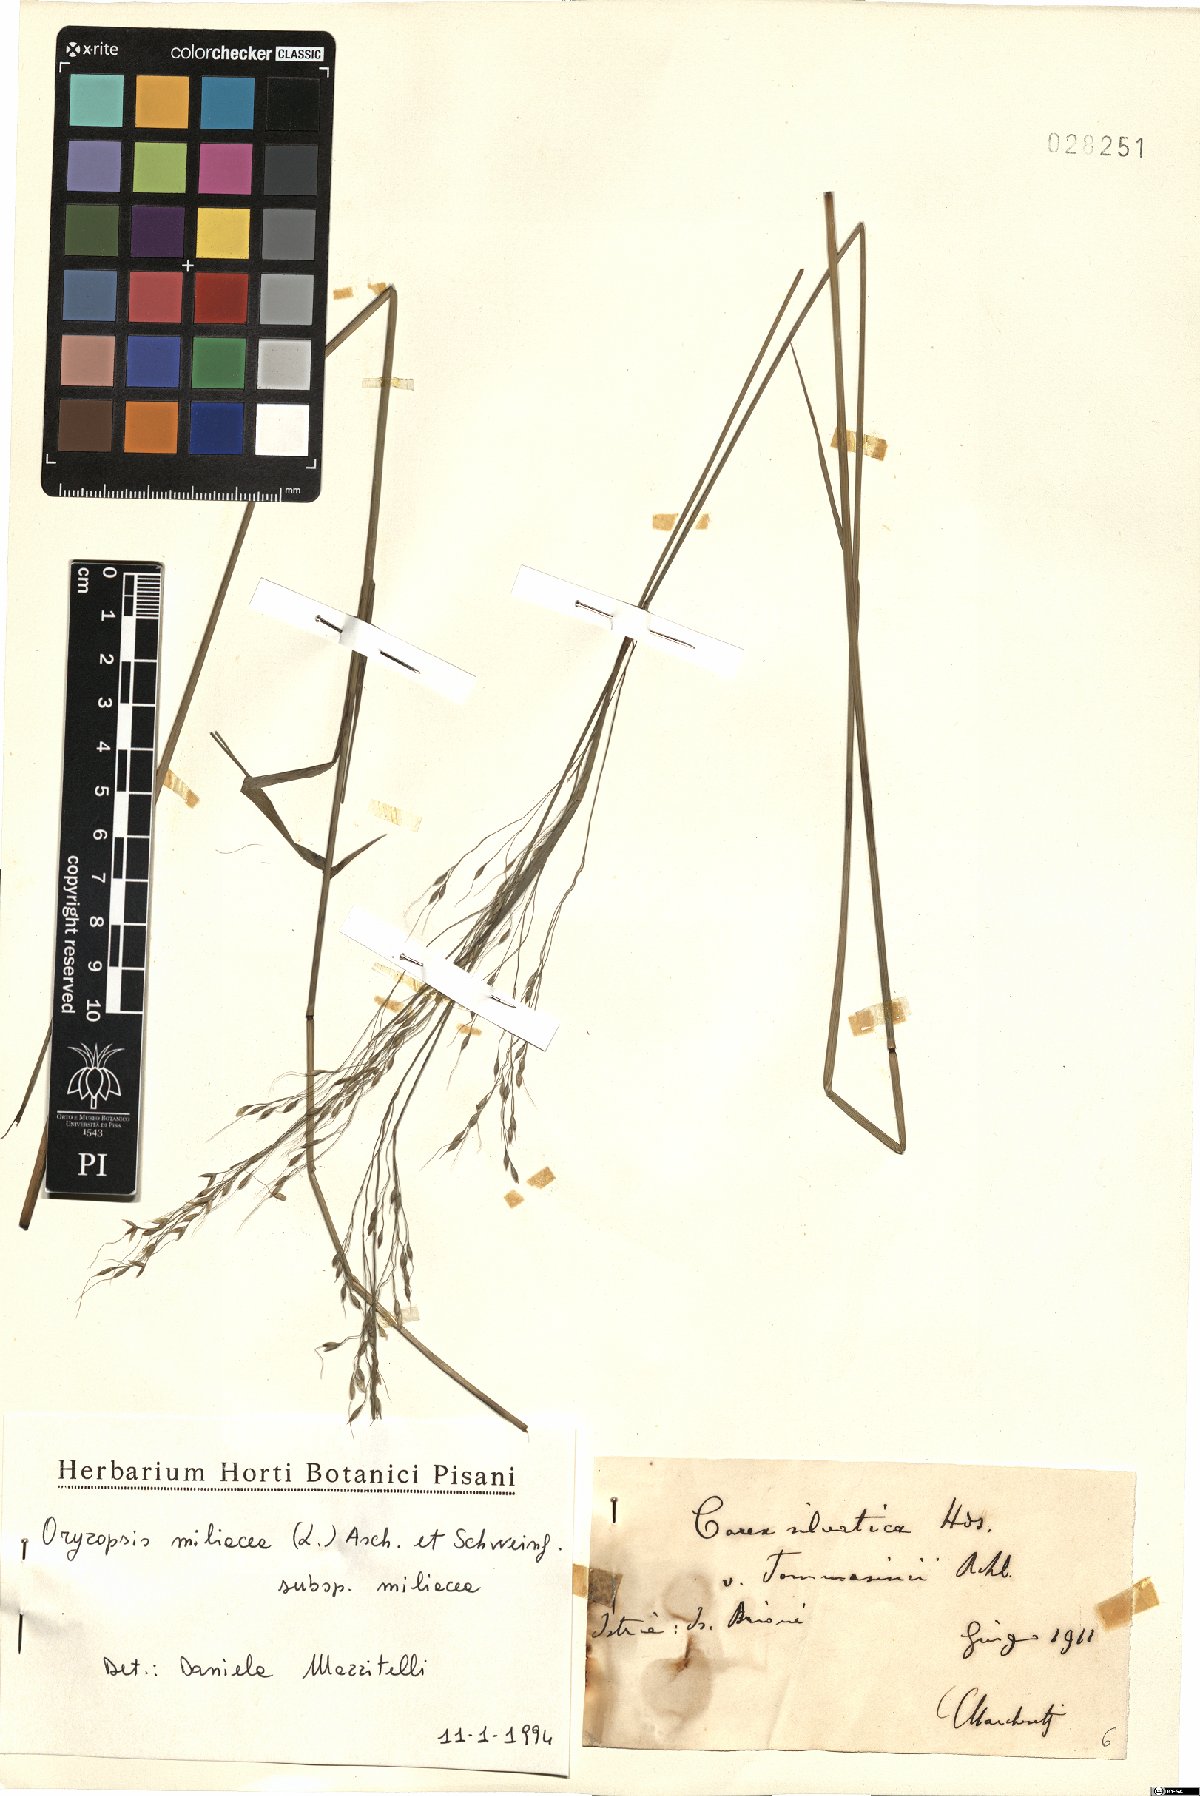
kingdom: Plantae
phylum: Tracheophyta
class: Liliopsida
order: Poales
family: Poaceae
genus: Oryzopsis
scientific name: Oryzopsis miliacea
